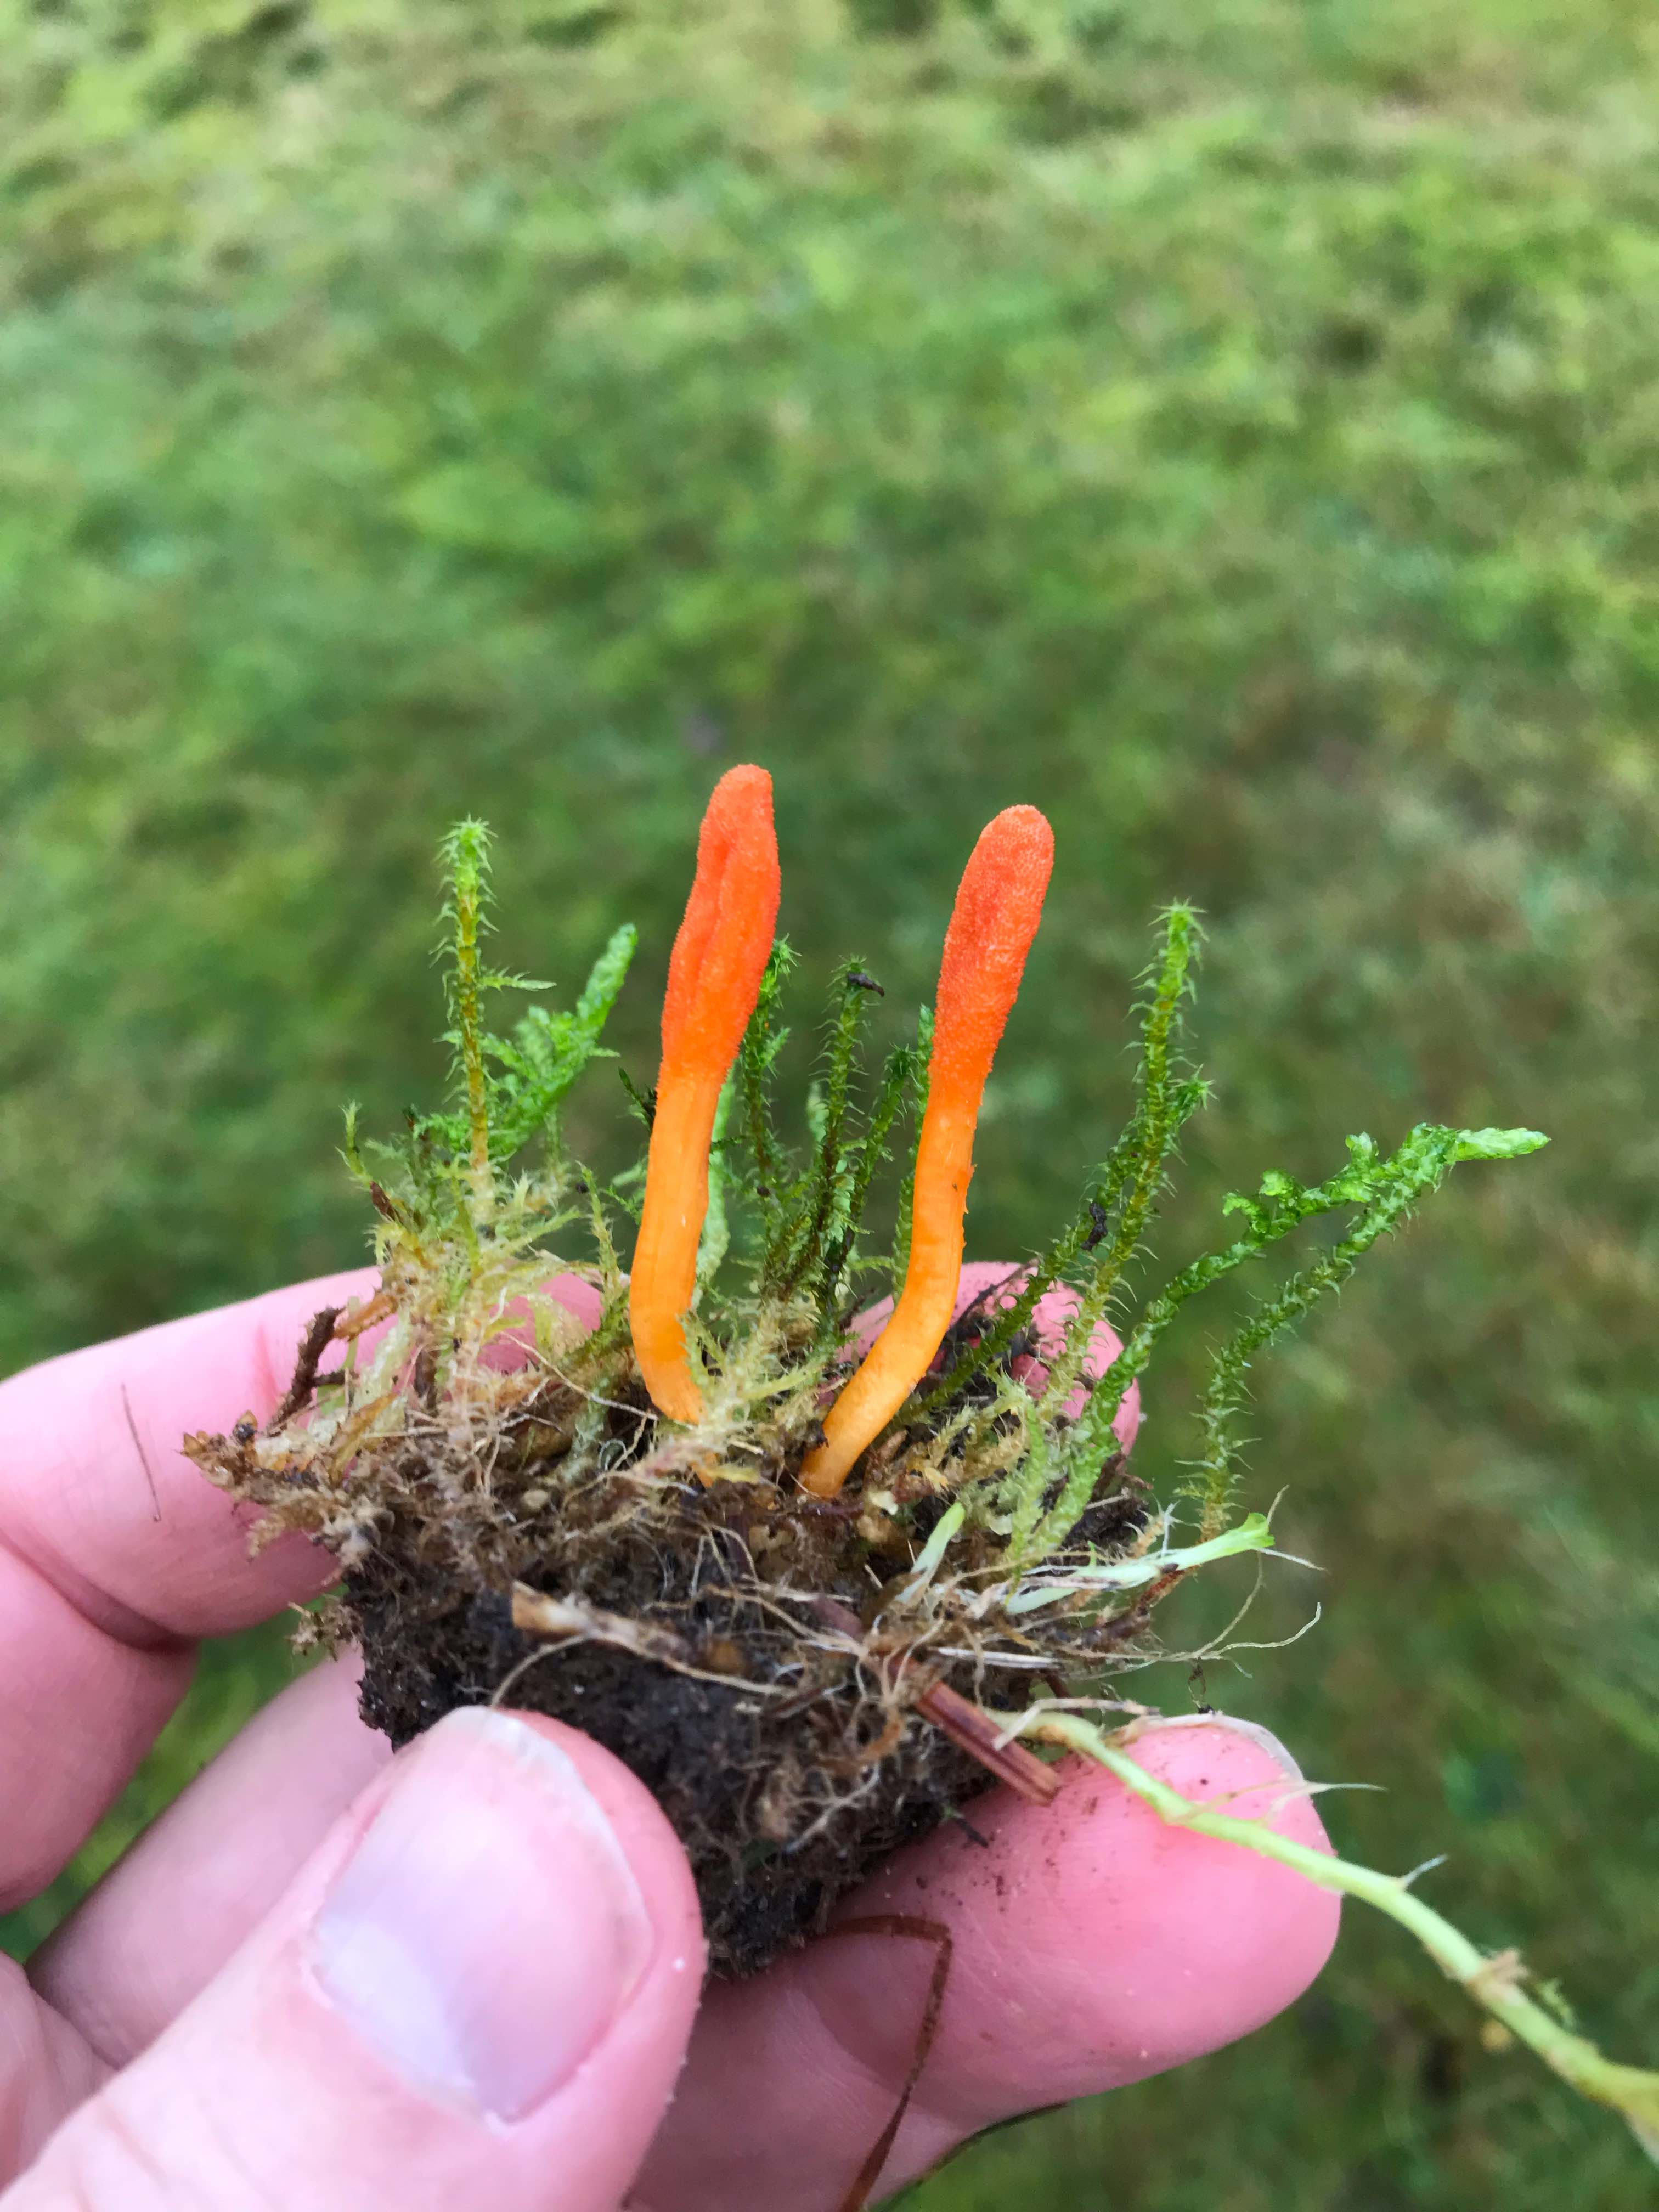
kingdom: Fungi
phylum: Ascomycota
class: Sordariomycetes
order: Hypocreales
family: Cordycipitaceae
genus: Cordyceps
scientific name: Cordyceps militaris
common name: puppe-snyltekølle
